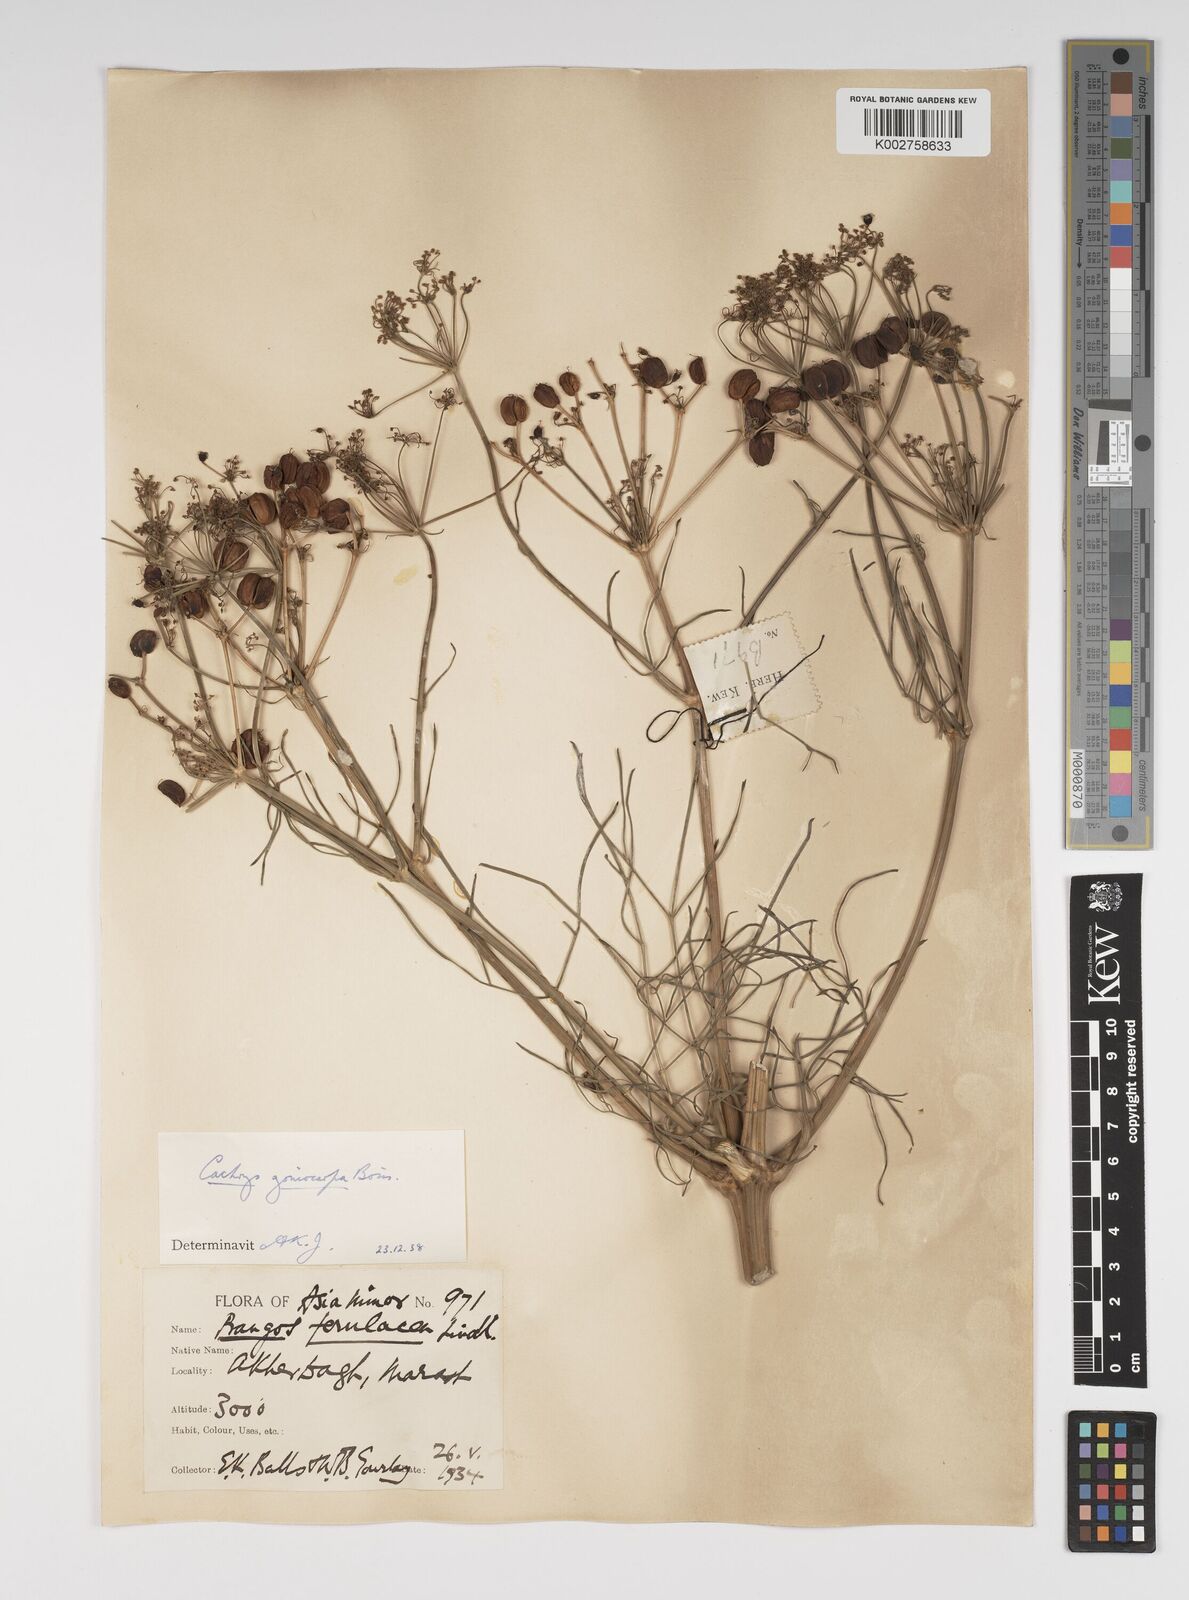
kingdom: Plantae
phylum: Tracheophyta
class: Magnoliopsida
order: Apiales
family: Apiaceae
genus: Prangos
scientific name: Prangos ferulacea
